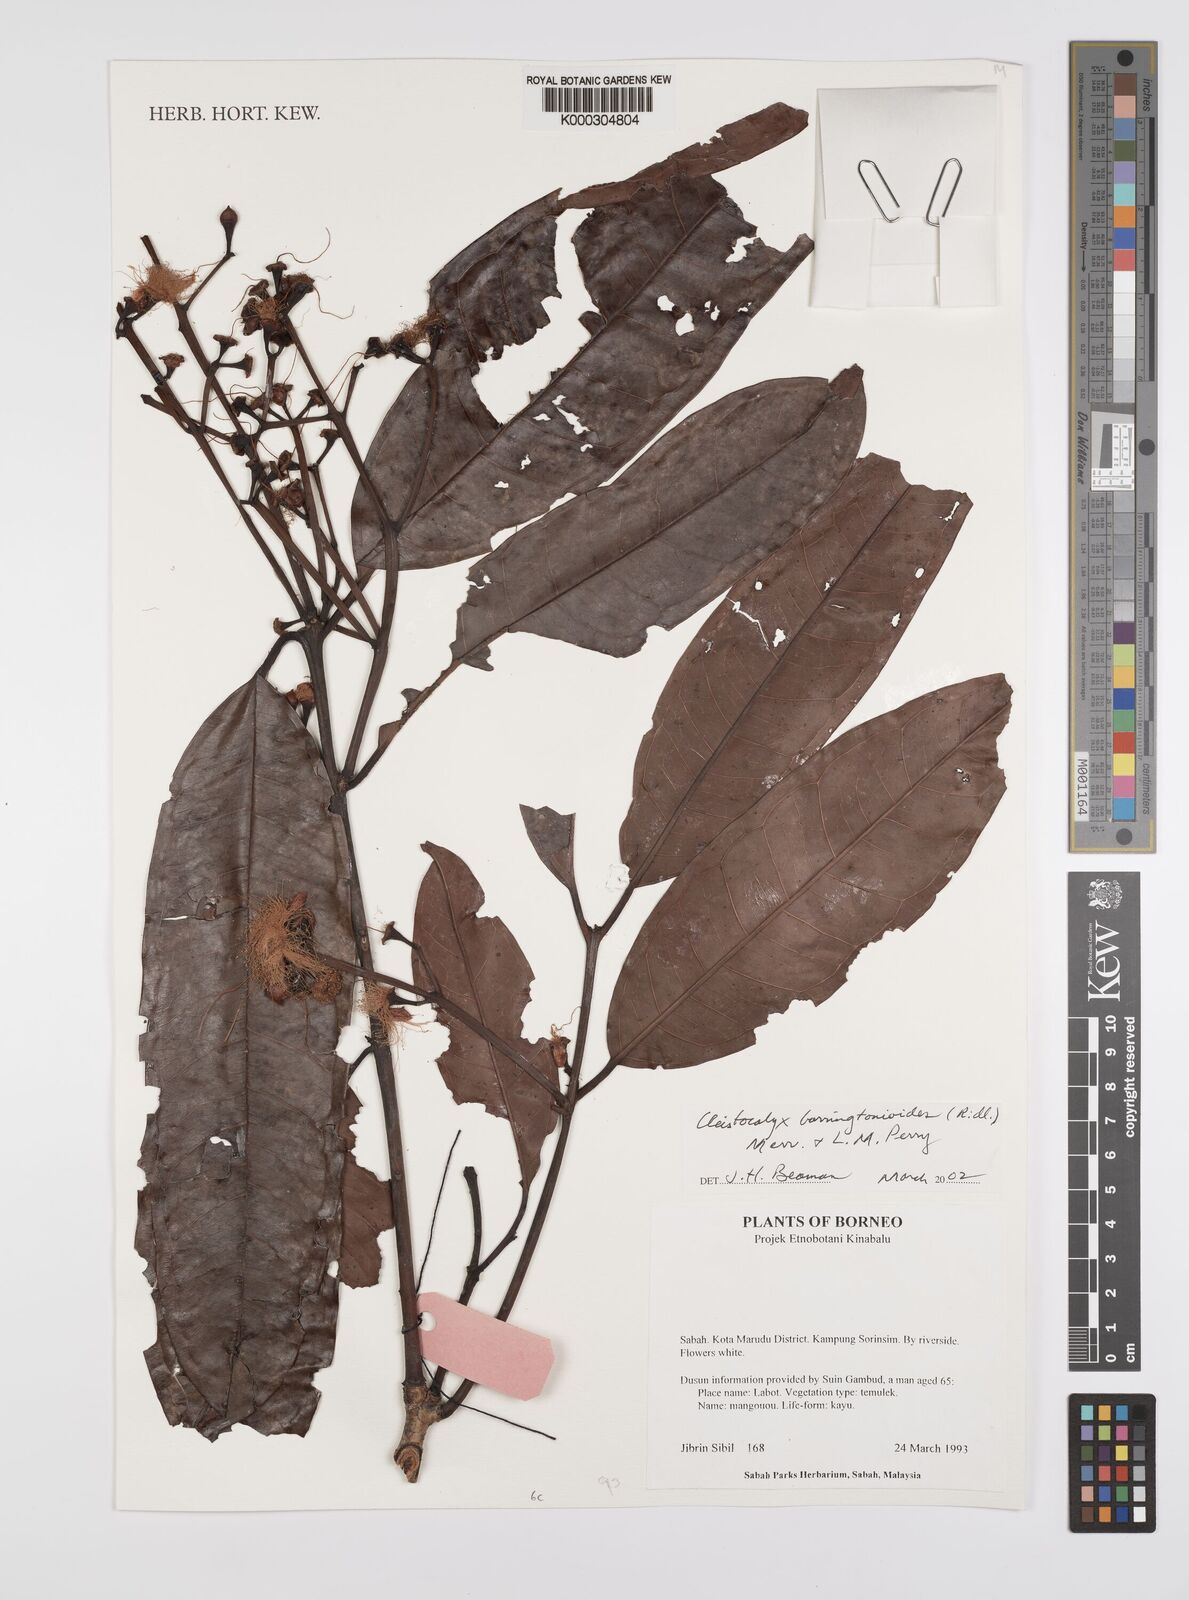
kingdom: Plantae
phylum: Tracheophyta
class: Magnoliopsida
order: Myrtales
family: Myrtaceae
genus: Syzygium
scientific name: Syzygium barringtonioides
